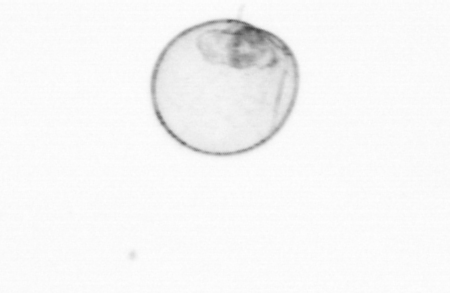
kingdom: Chromista
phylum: Myzozoa
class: Dinophyceae
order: Noctilucales
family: Noctilucaceae
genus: Noctiluca
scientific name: Noctiluca scintillans
